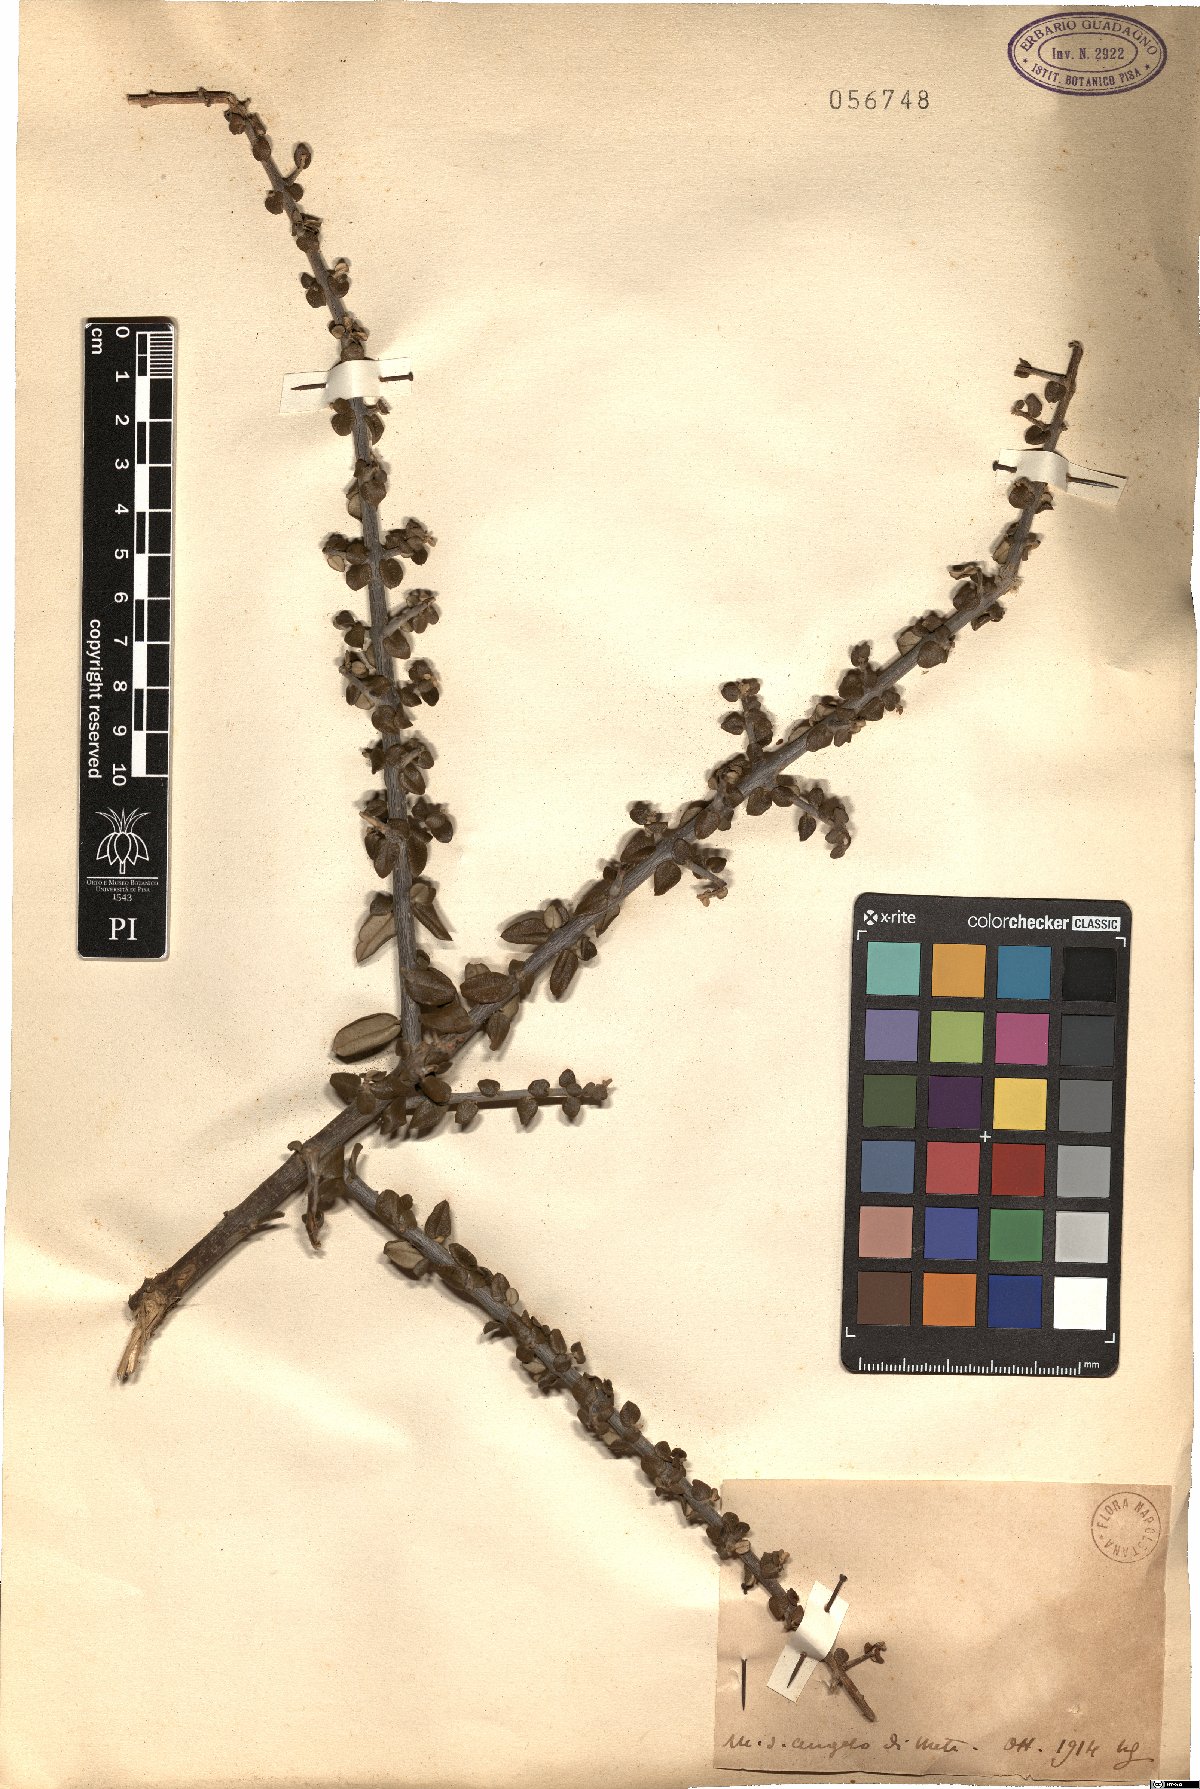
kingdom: Plantae
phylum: Tracheophyta
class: Magnoliopsida
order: Lamiales
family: Oleaceae
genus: Olea
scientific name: Olea
